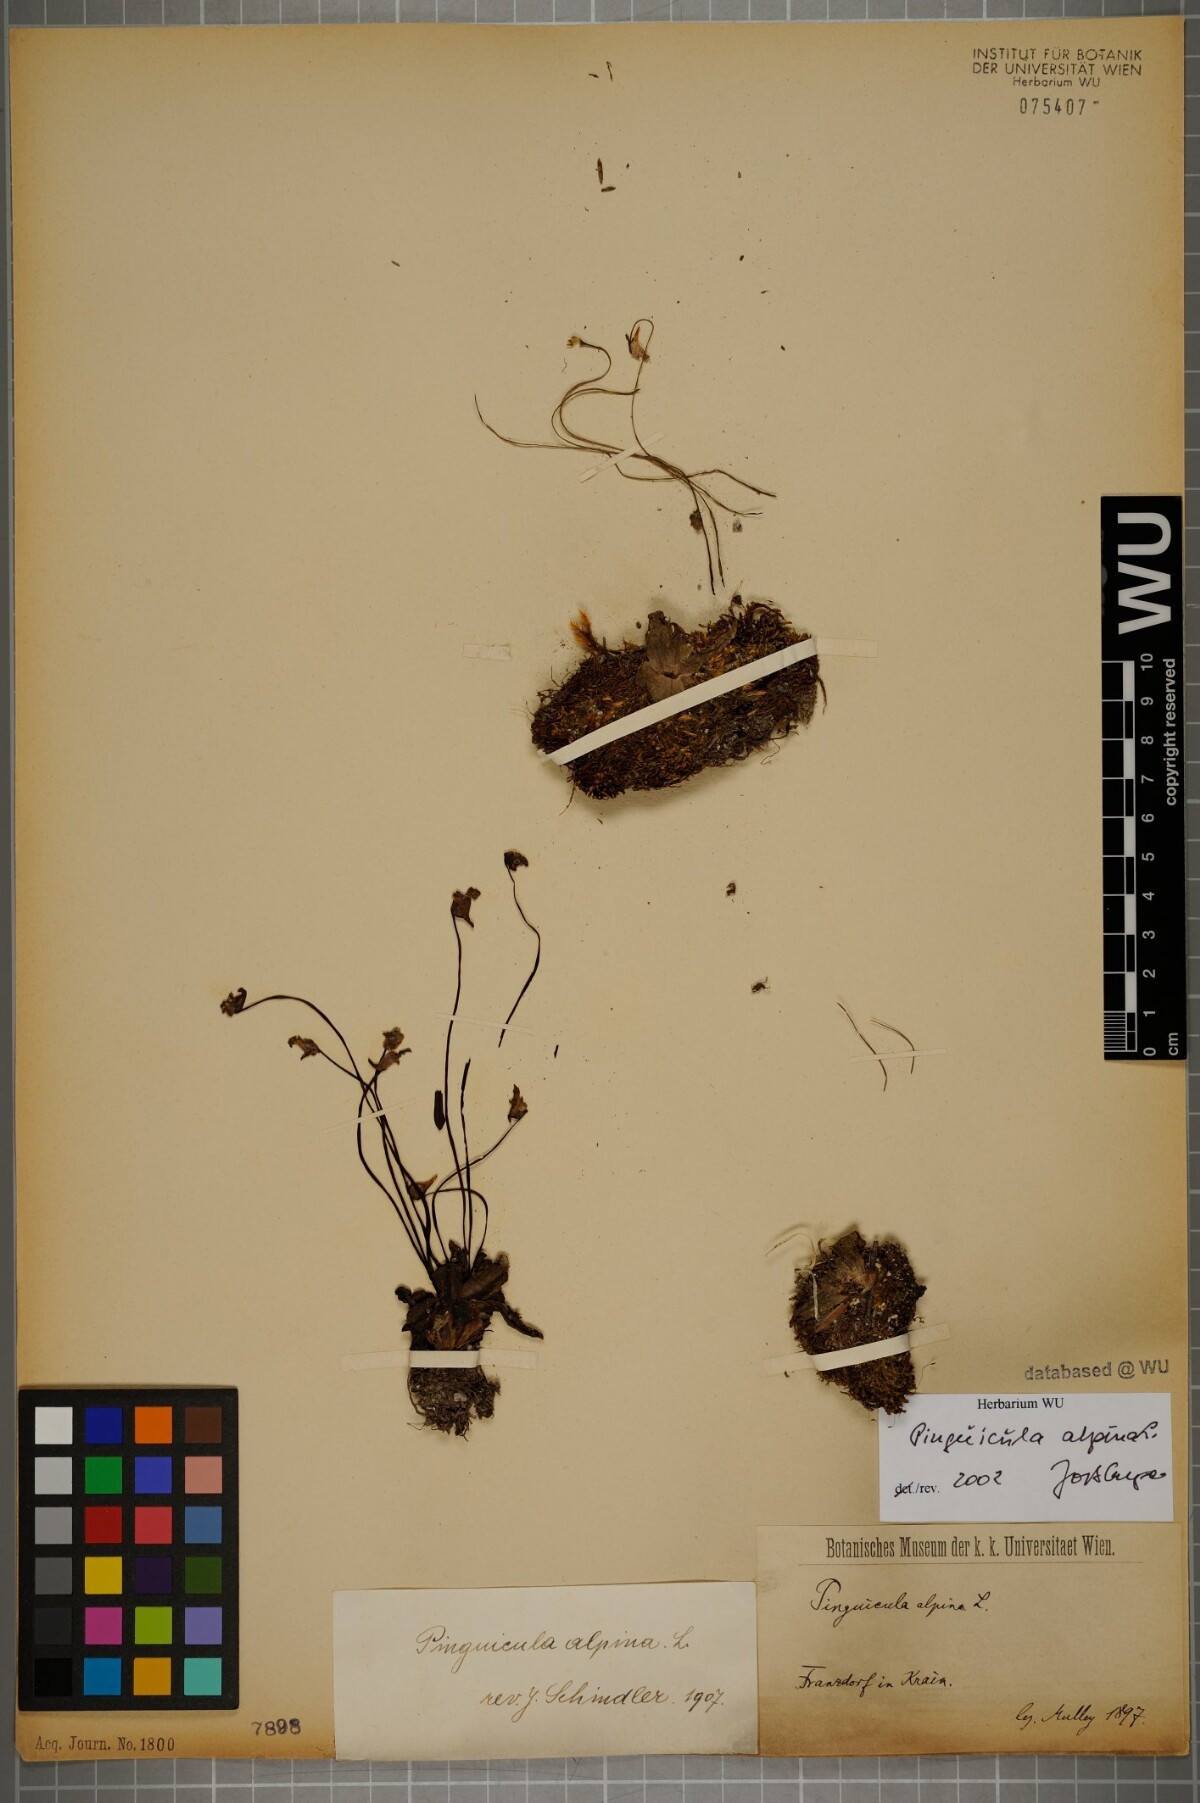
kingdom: Plantae
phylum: Tracheophyta
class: Magnoliopsida
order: Lamiales
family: Lentibulariaceae
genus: Pinguicula
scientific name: Pinguicula alpina
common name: Alpine butterwort
